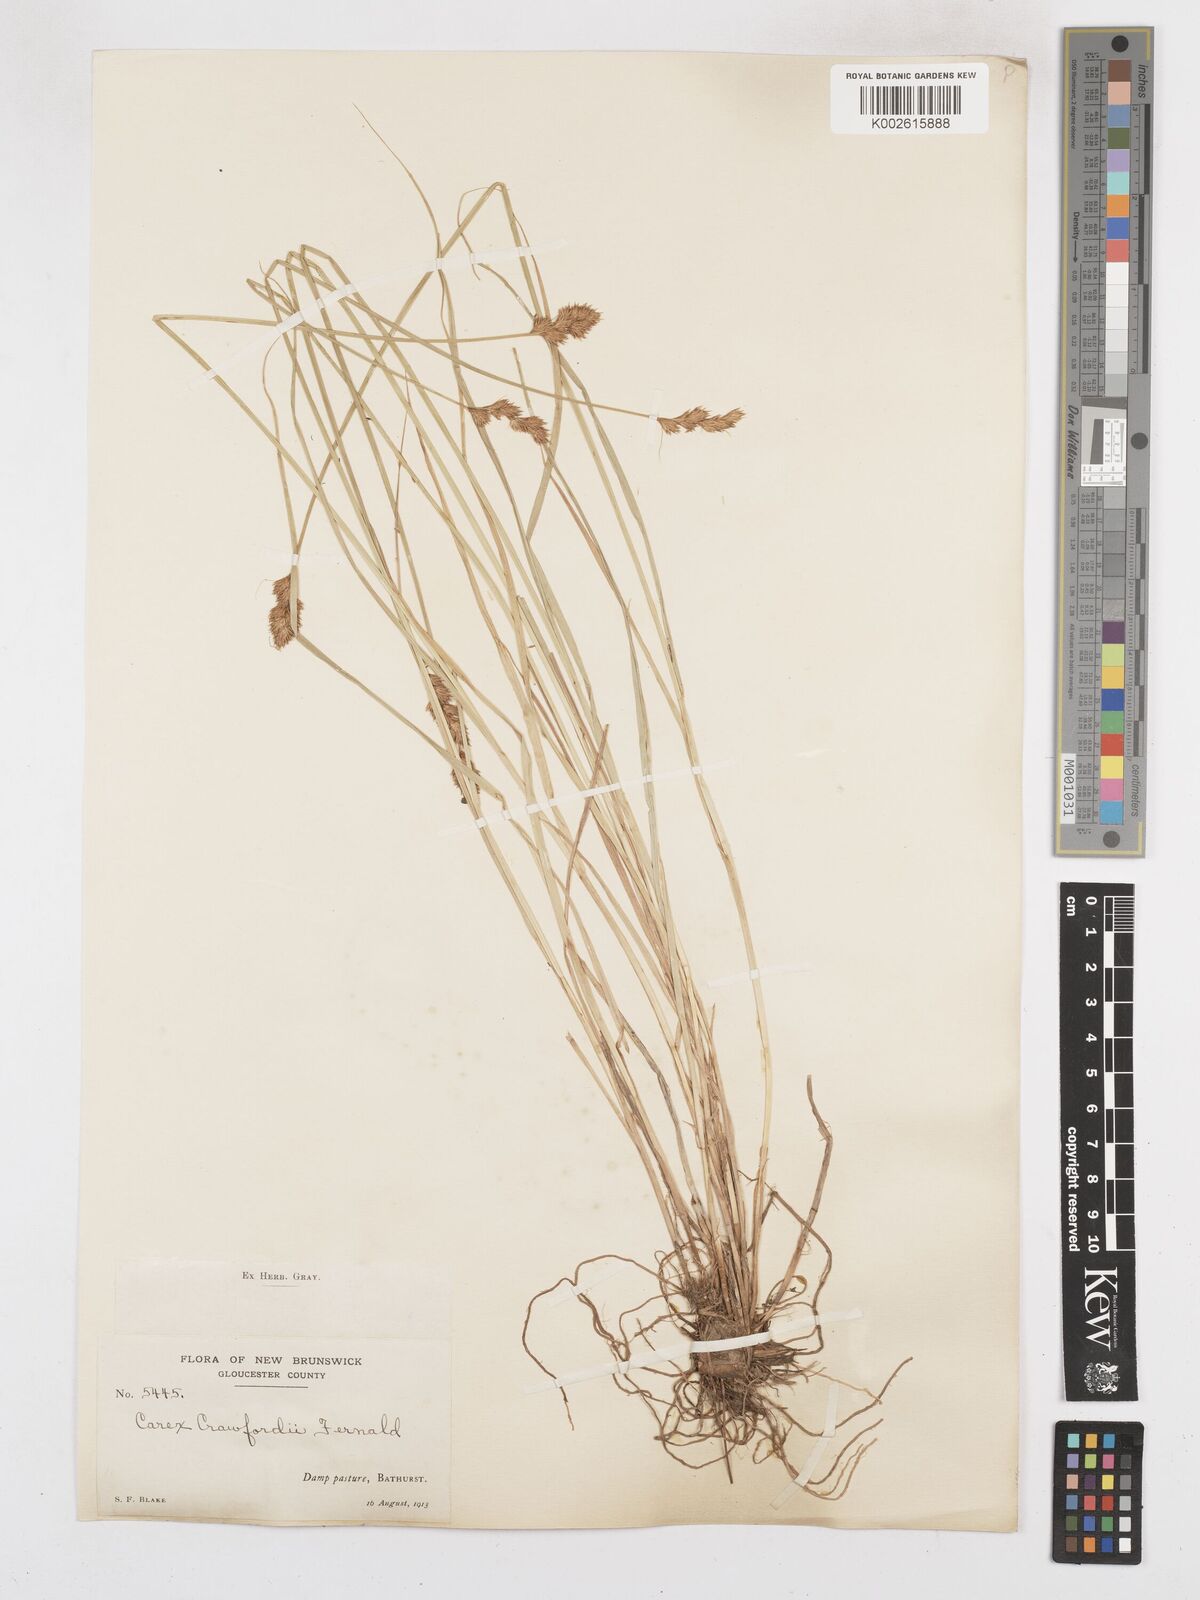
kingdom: Plantae
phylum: Tracheophyta
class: Liliopsida
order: Poales
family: Cyperaceae
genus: Carex
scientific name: Carex crawfordii
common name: Crawford's sedge
